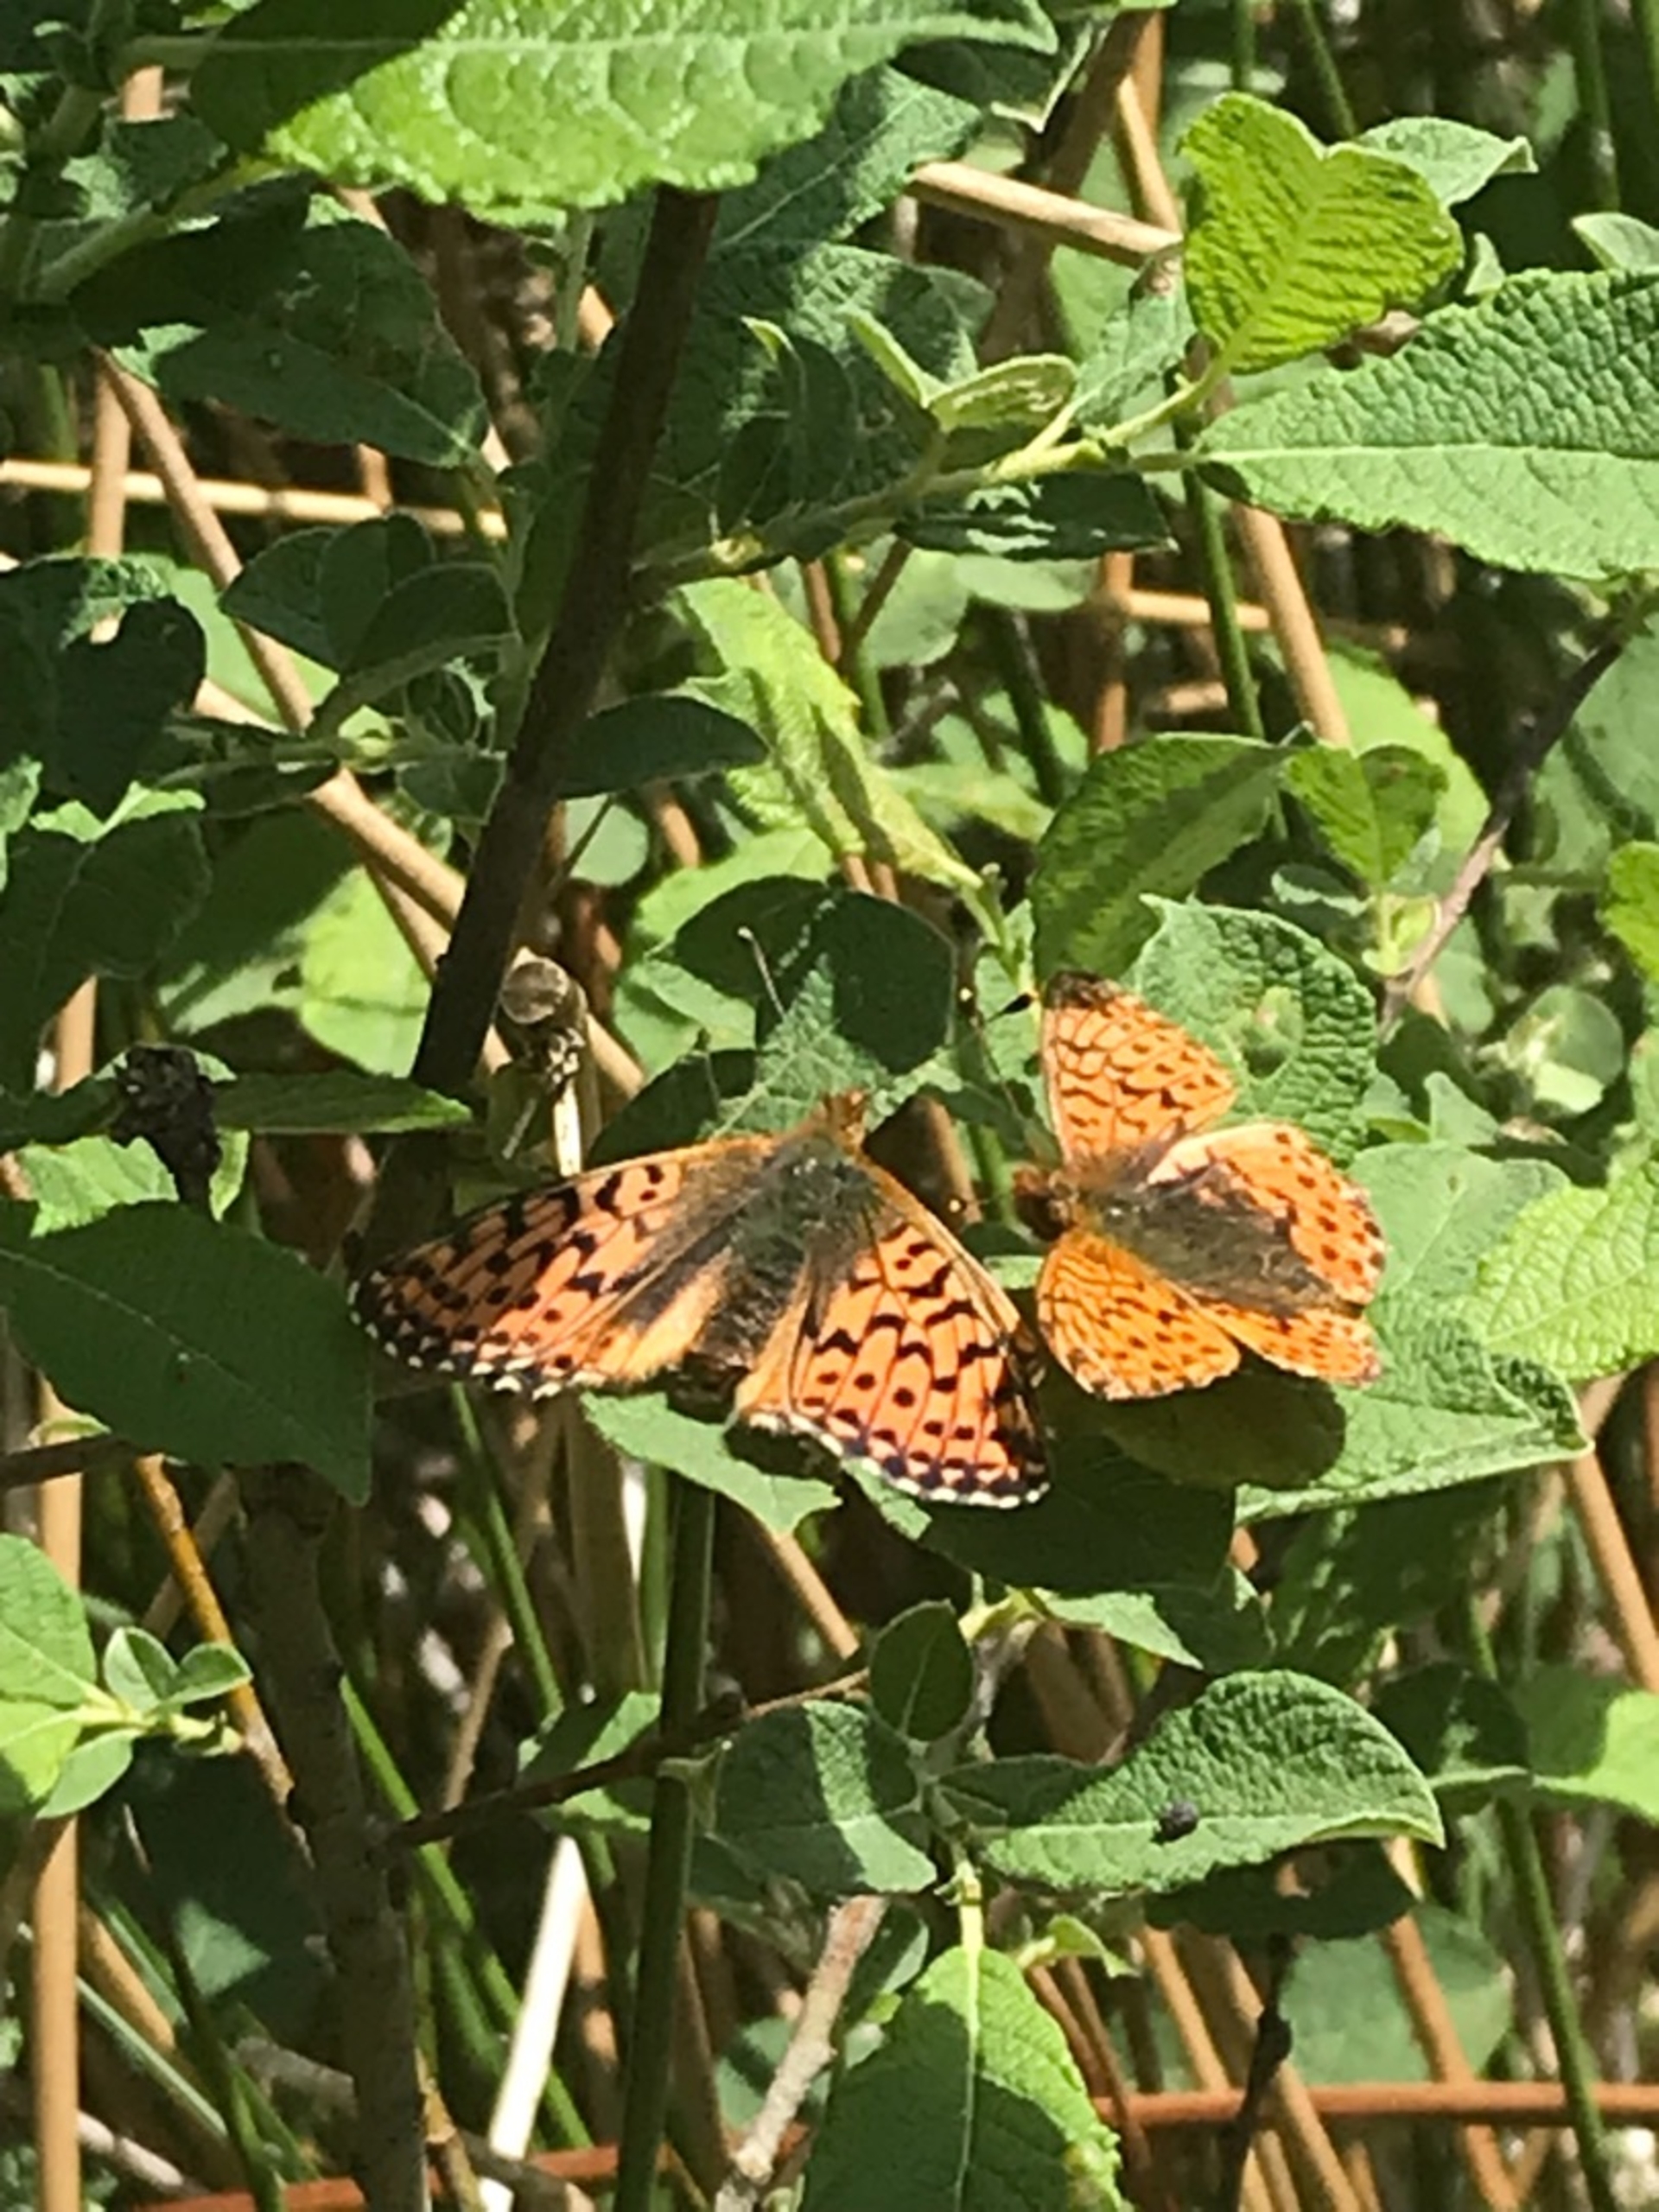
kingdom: Animalia
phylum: Arthropoda
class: Insecta
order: Lepidoptera
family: Nymphalidae
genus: Boloria
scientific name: Boloria aquilonaris
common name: Moseperlemorsommerfugl
